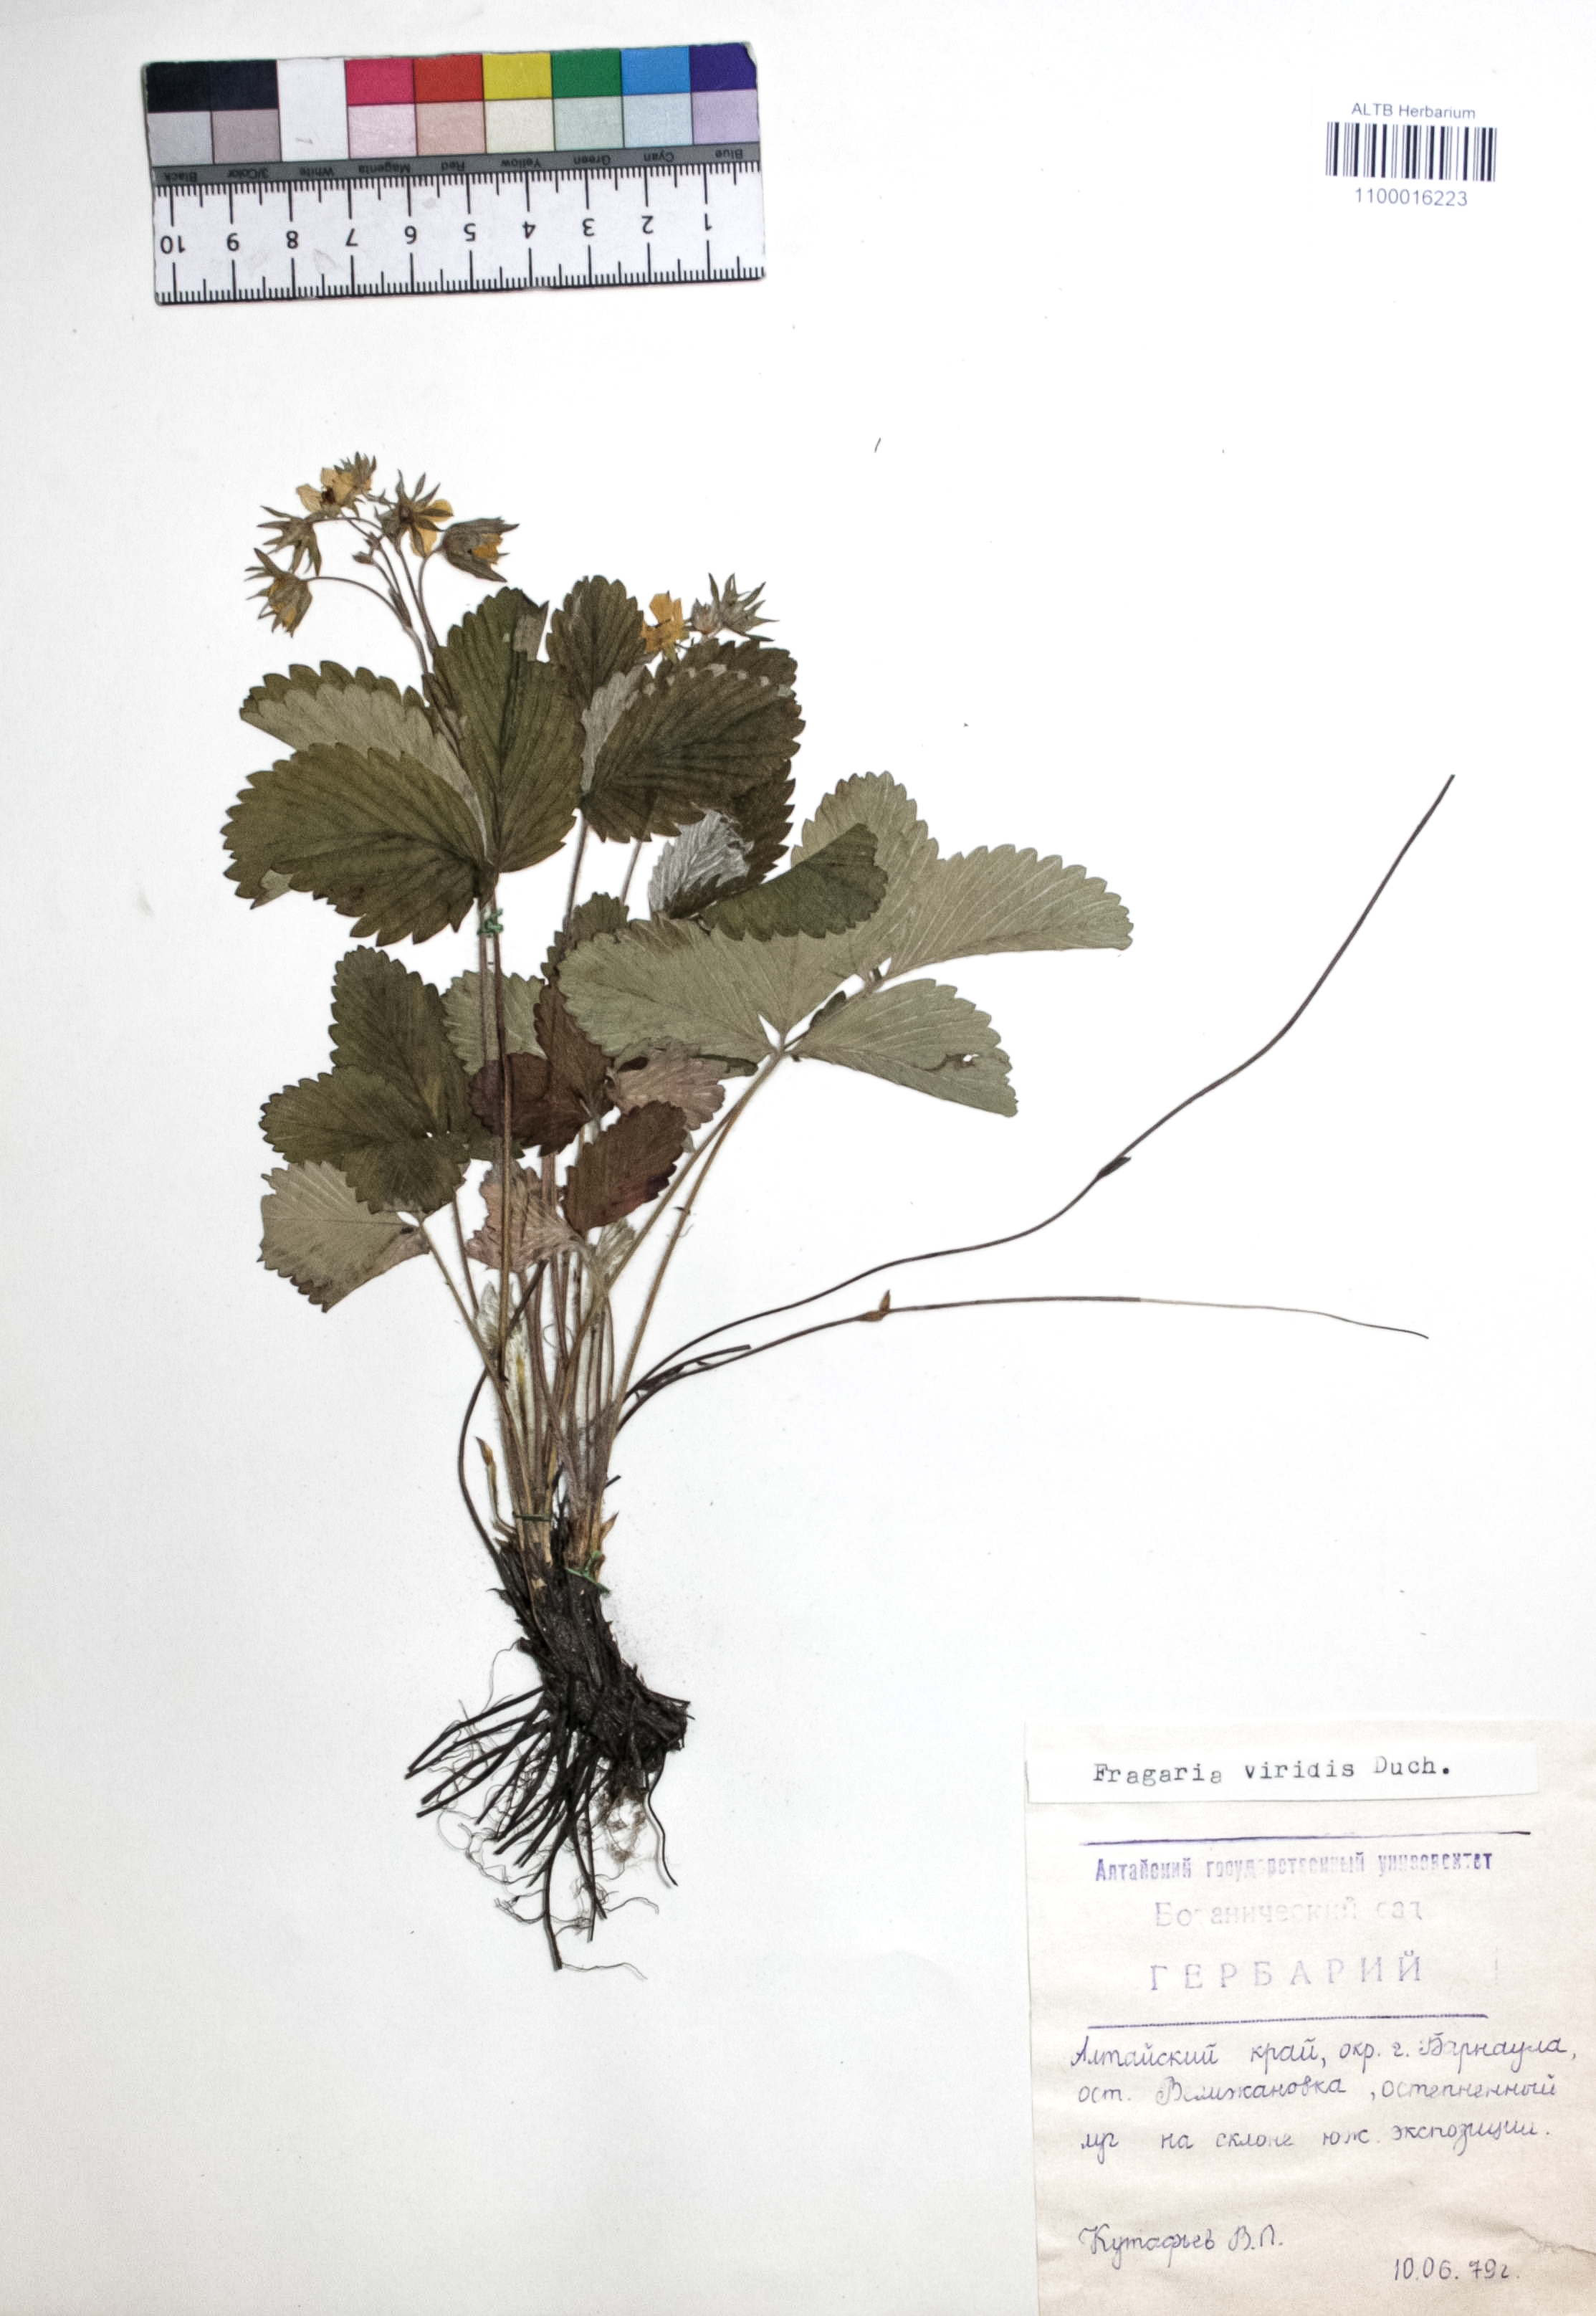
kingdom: Plantae
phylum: Tracheophyta
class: Magnoliopsida
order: Rosales
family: Rosaceae
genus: Fragaria
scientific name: Fragaria viridis
